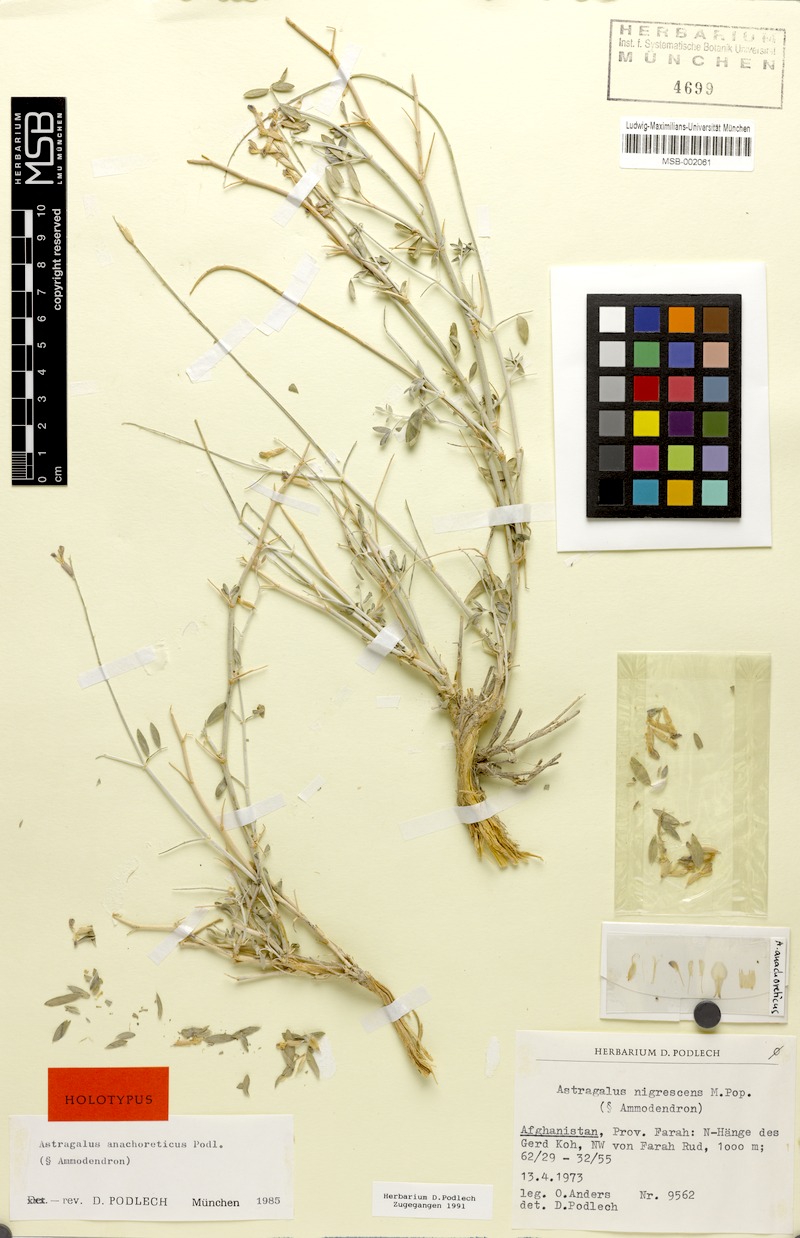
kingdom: Plantae
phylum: Tracheophyta
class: Magnoliopsida
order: Fabales
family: Fabaceae
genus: Astragalus
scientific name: Astragalus anachoreticus
